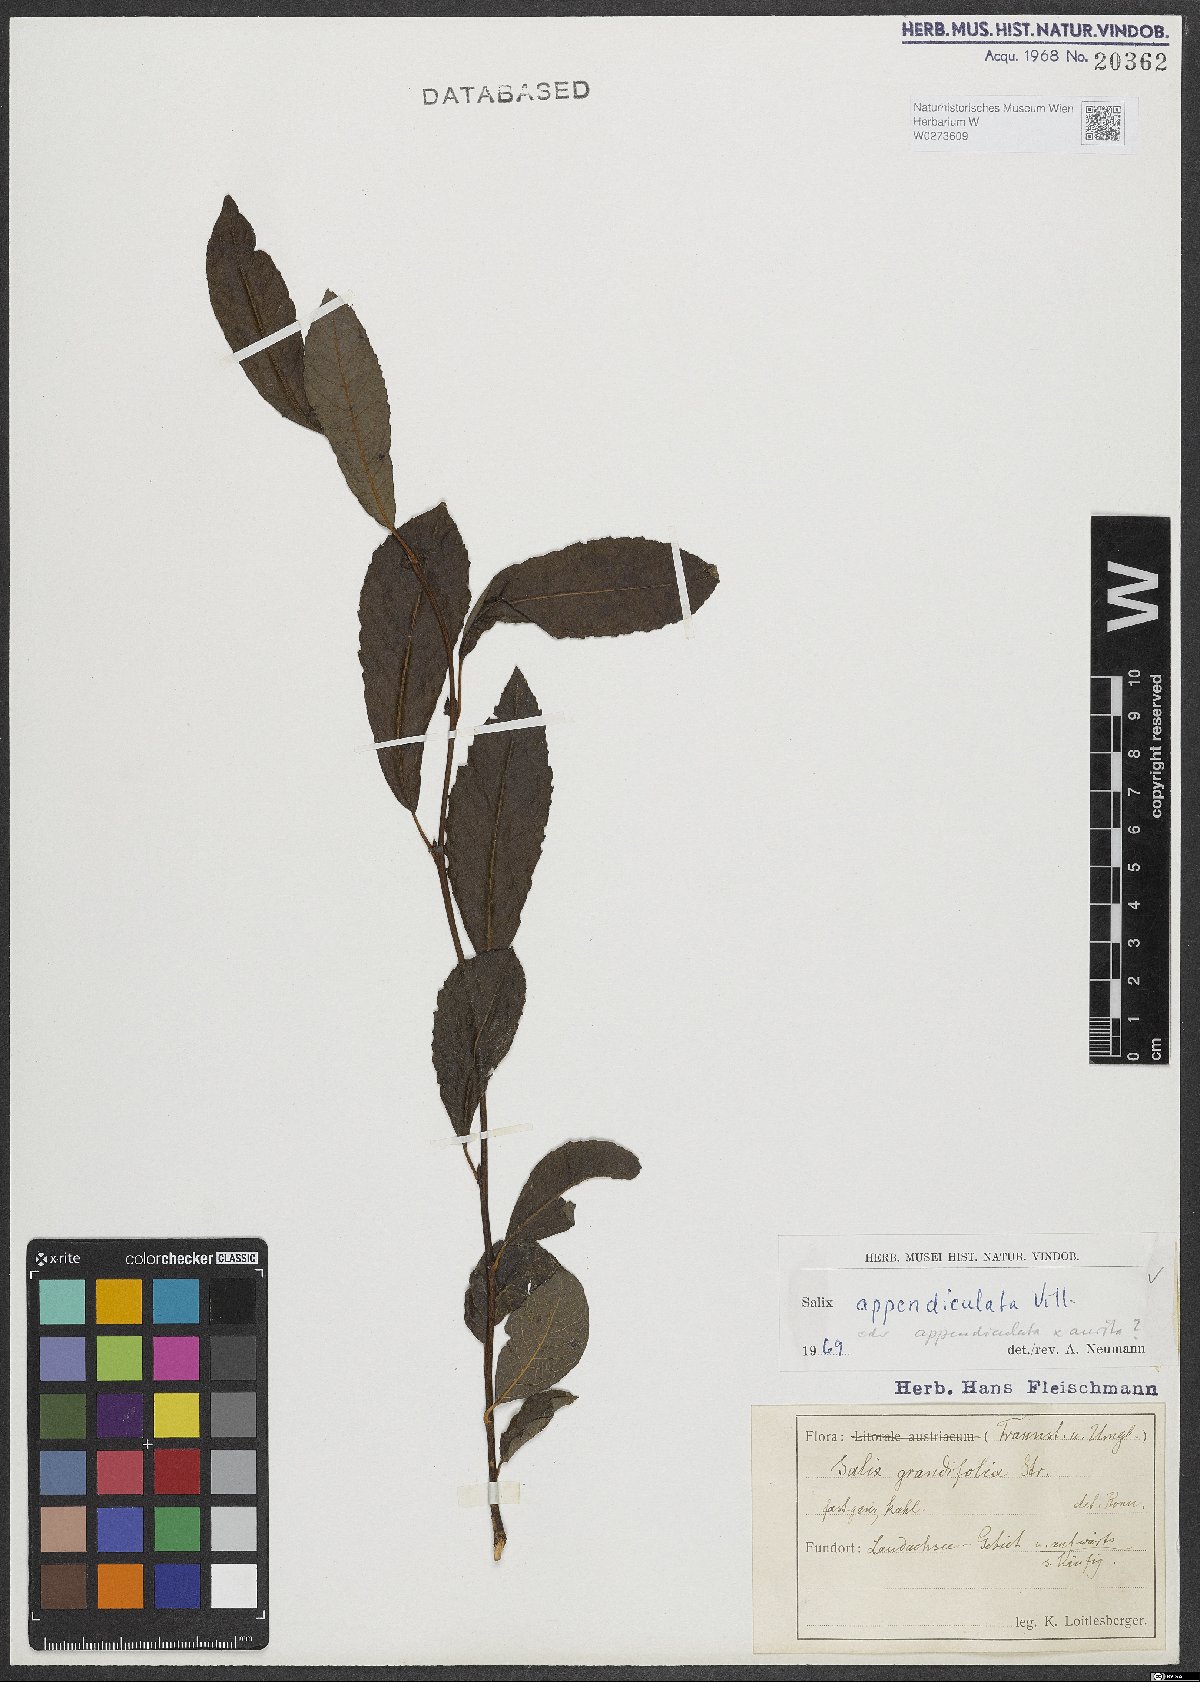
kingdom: Plantae
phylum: Tracheophyta
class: Magnoliopsida
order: Malpighiales
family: Salicaceae
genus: Salix
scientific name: Salix appendiculata
